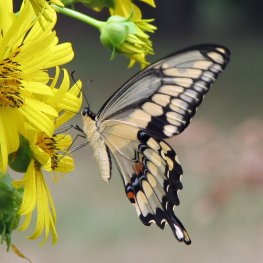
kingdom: Animalia
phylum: Arthropoda
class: Insecta
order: Lepidoptera
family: Papilionidae
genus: Papilio
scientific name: Papilio cresphontes
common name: Eastern Giant Swallowtail
